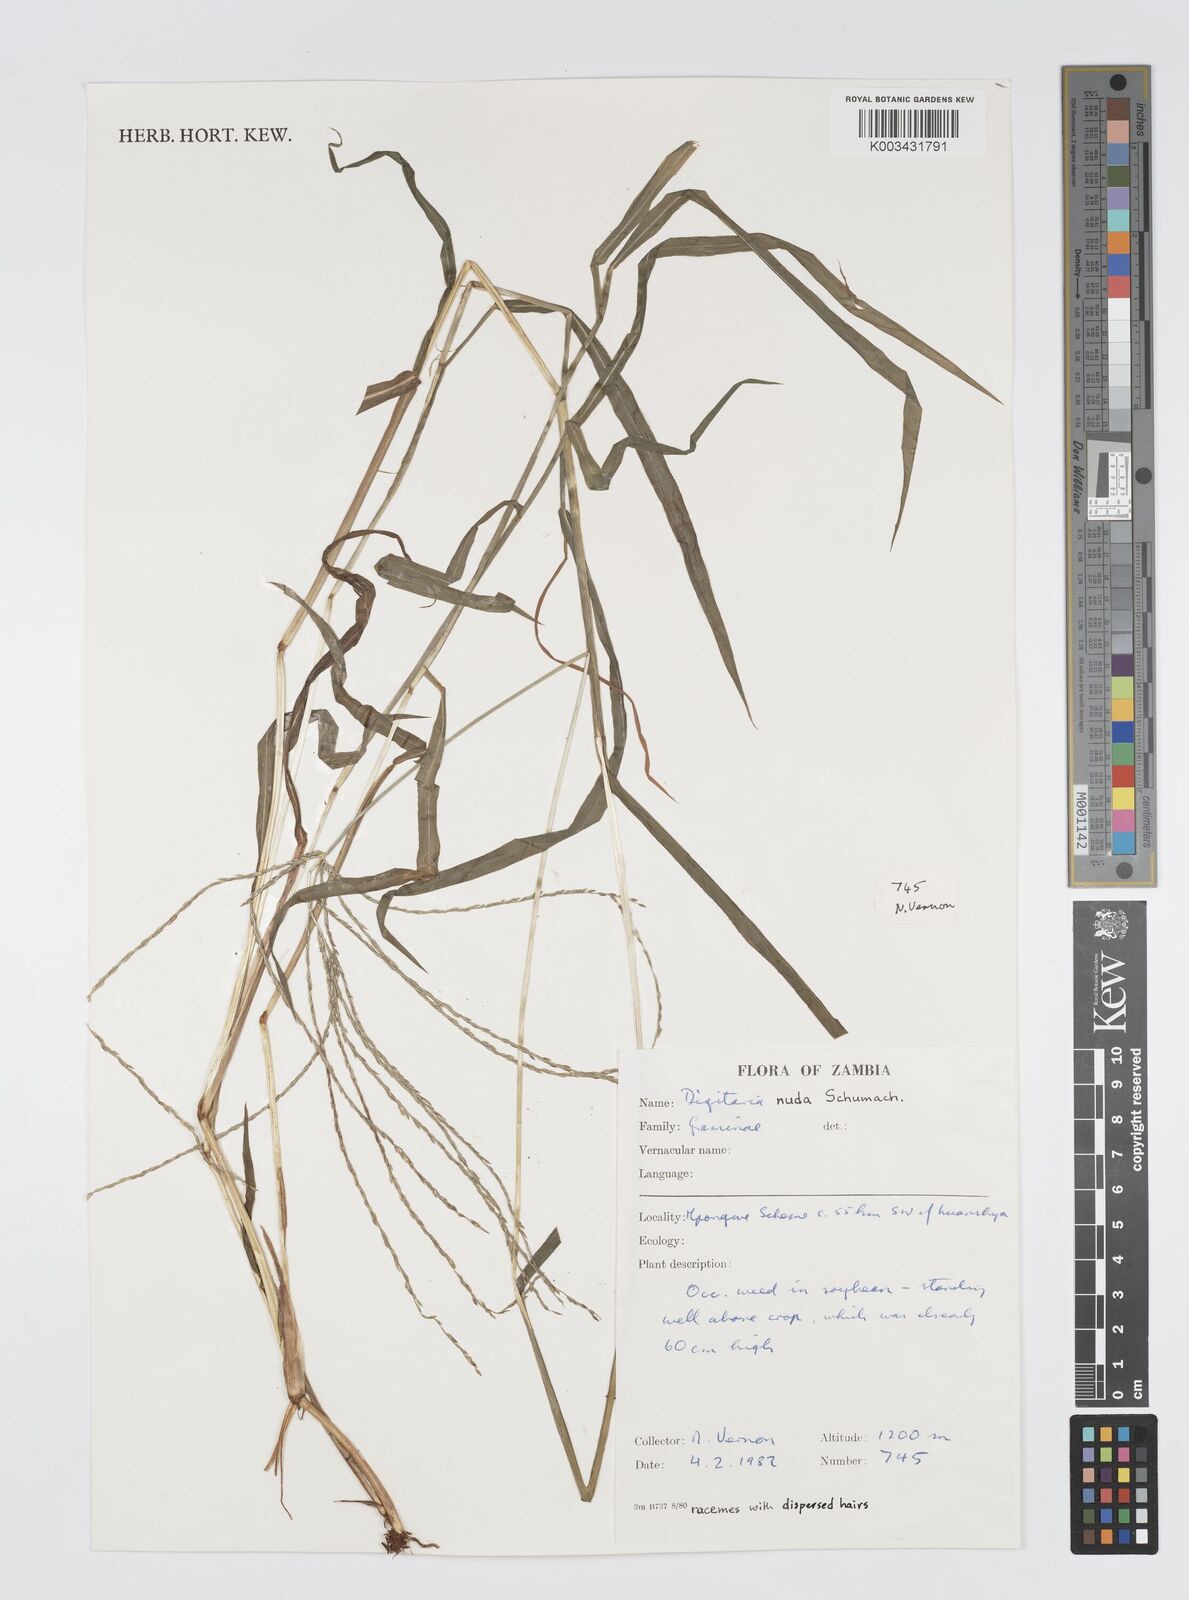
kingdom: Plantae
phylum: Tracheophyta
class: Liliopsida
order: Poales
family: Poaceae
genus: Digitaria
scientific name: Digitaria nuda
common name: Naked crabgrass
